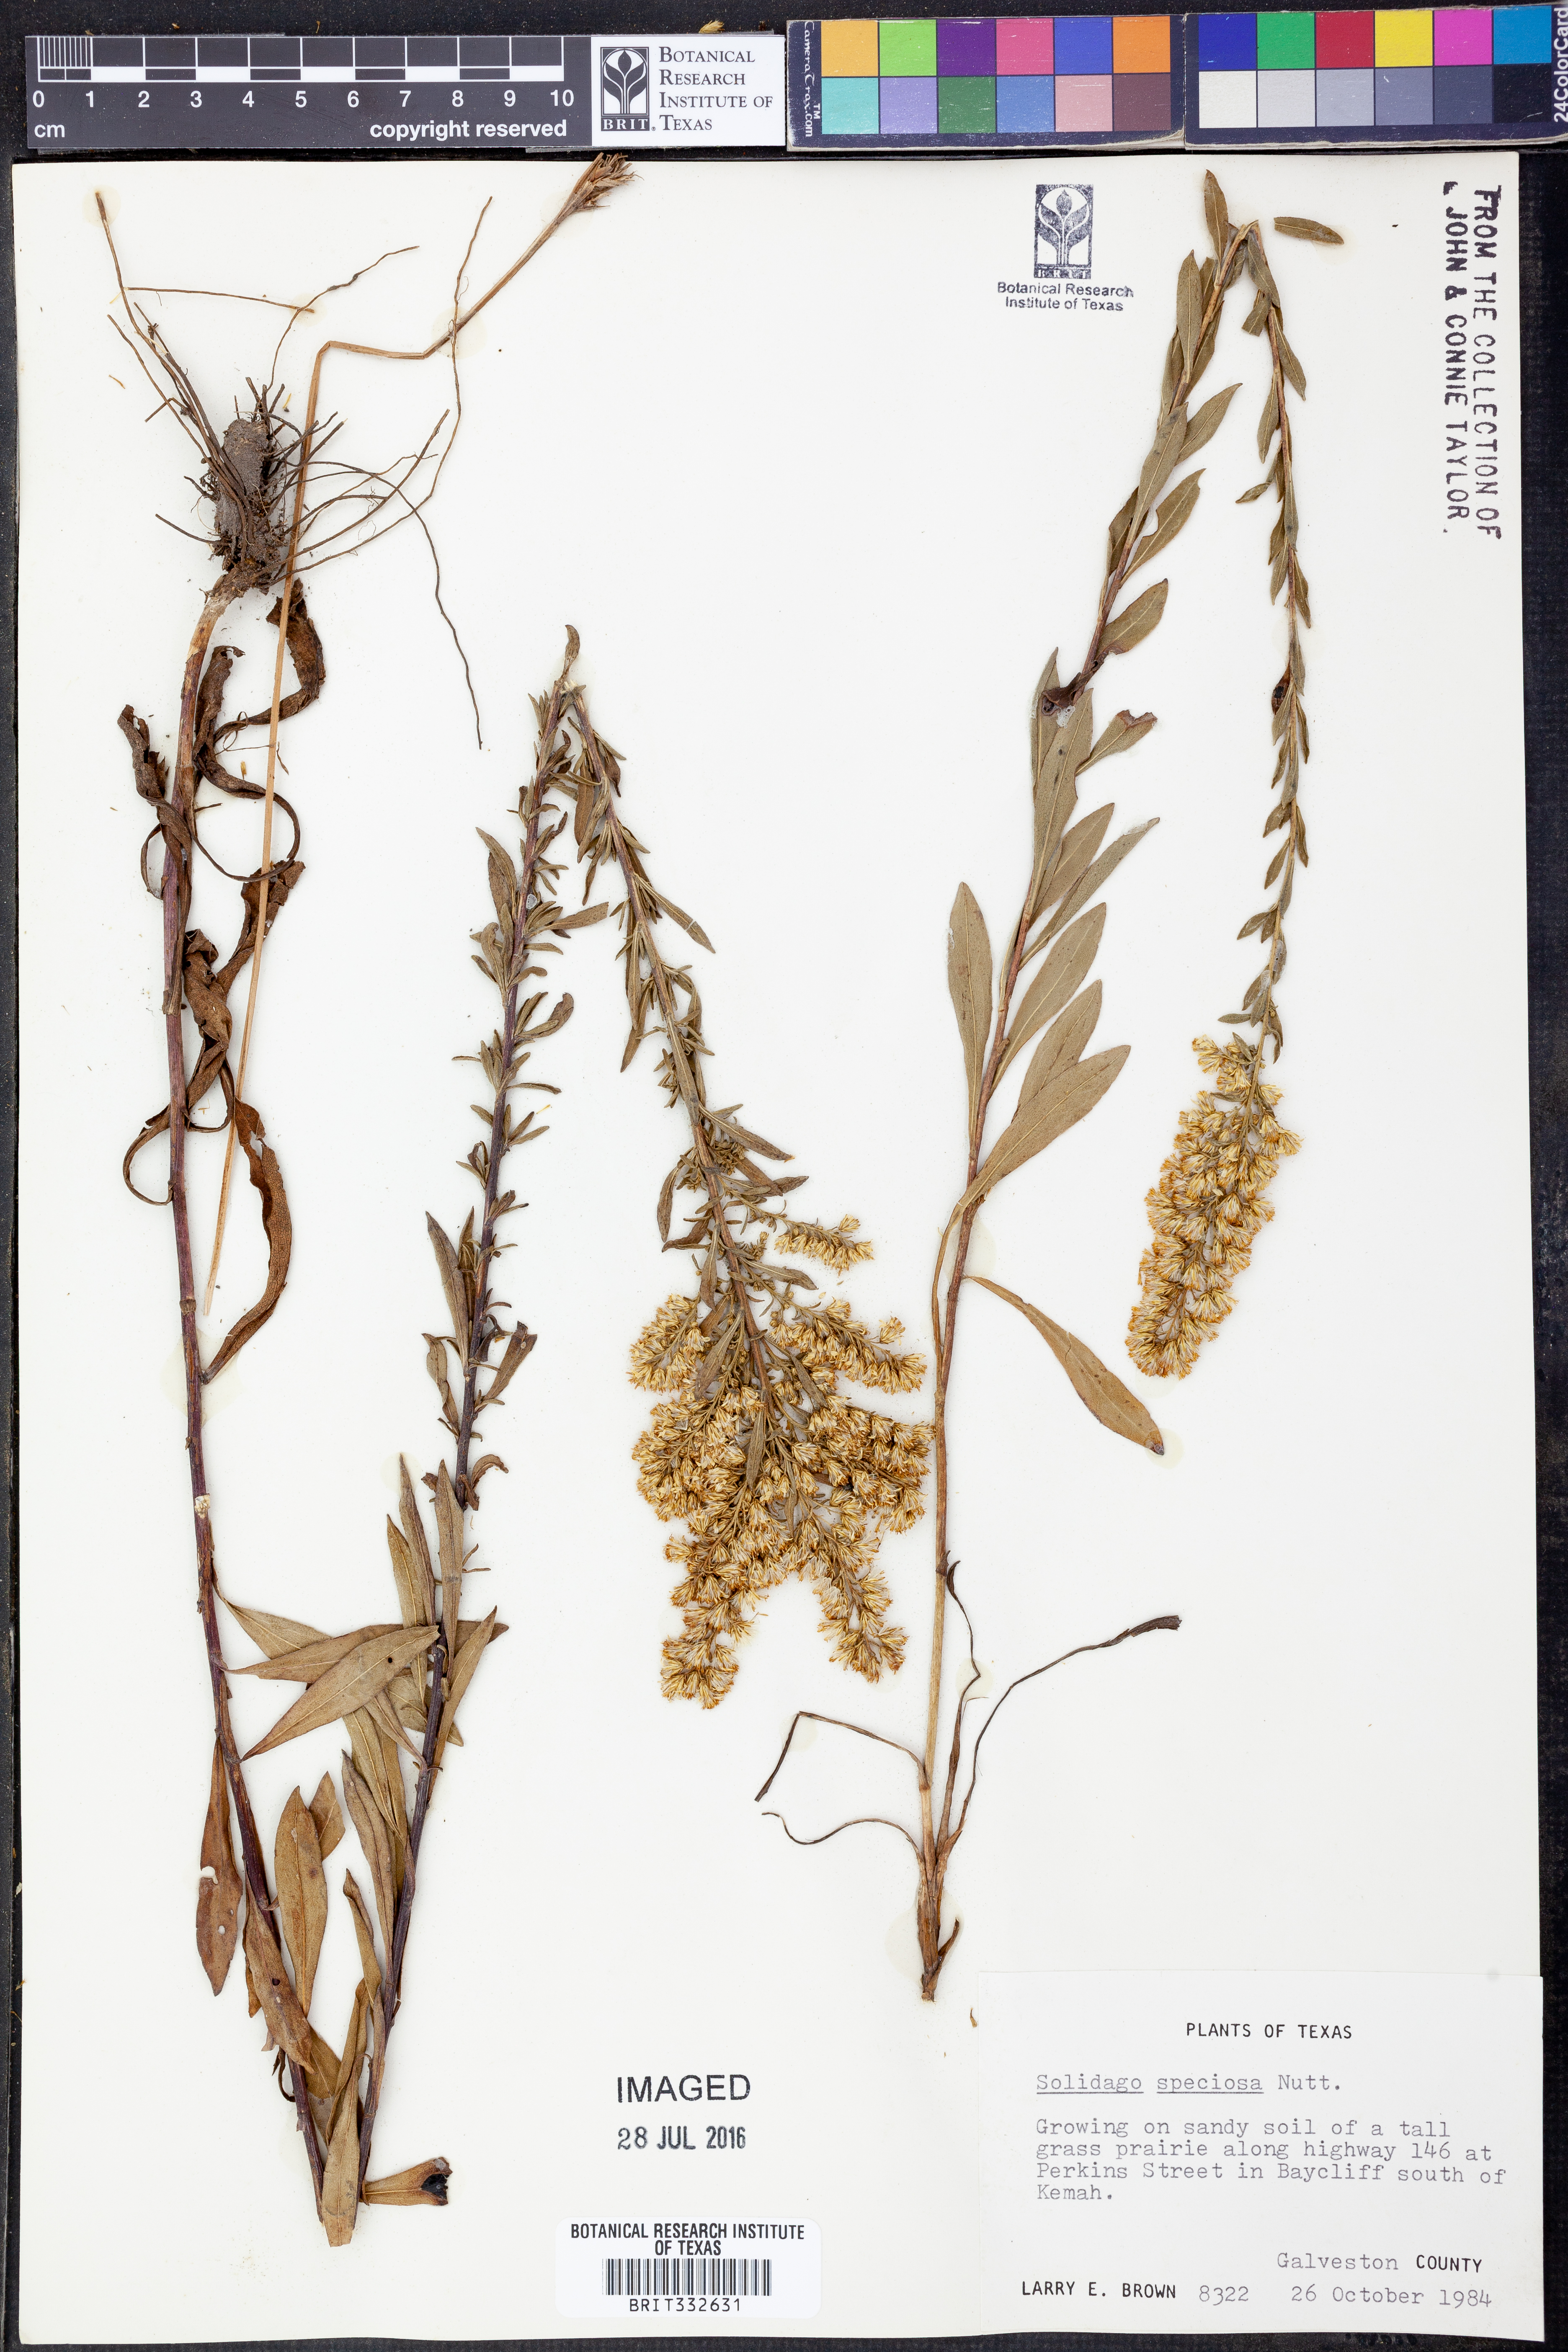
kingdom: Plantae
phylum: Tracheophyta
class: Magnoliopsida
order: Asterales
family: Asteraceae
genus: Solidago
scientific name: Solidago speciosa
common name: Showy goldenrod
